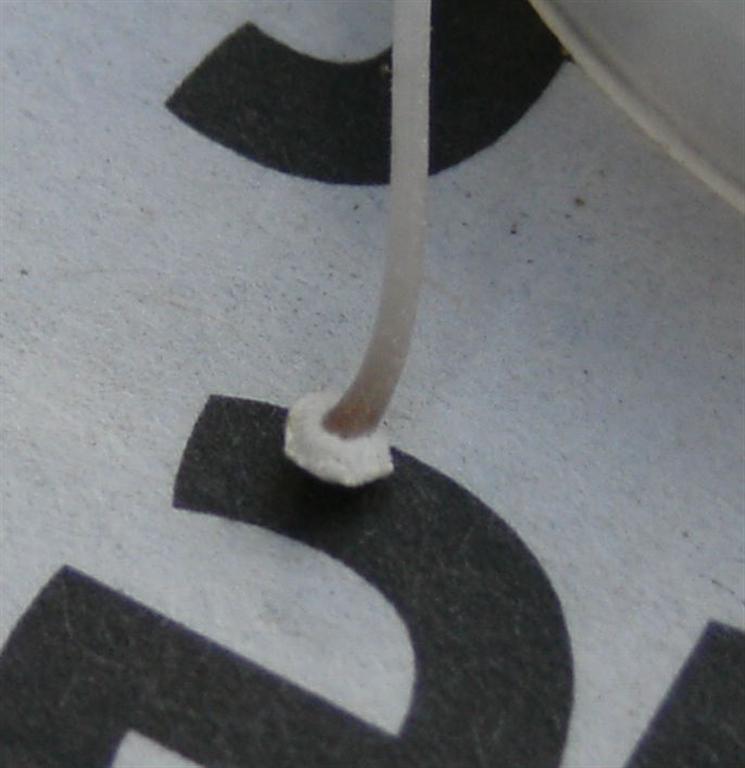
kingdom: Fungi
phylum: Basidiomycota
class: Agaricomycetes
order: Agaricales
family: Mycenaceae
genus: Mycena
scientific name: Mycena stylobates
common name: fureskivet huesvamp
